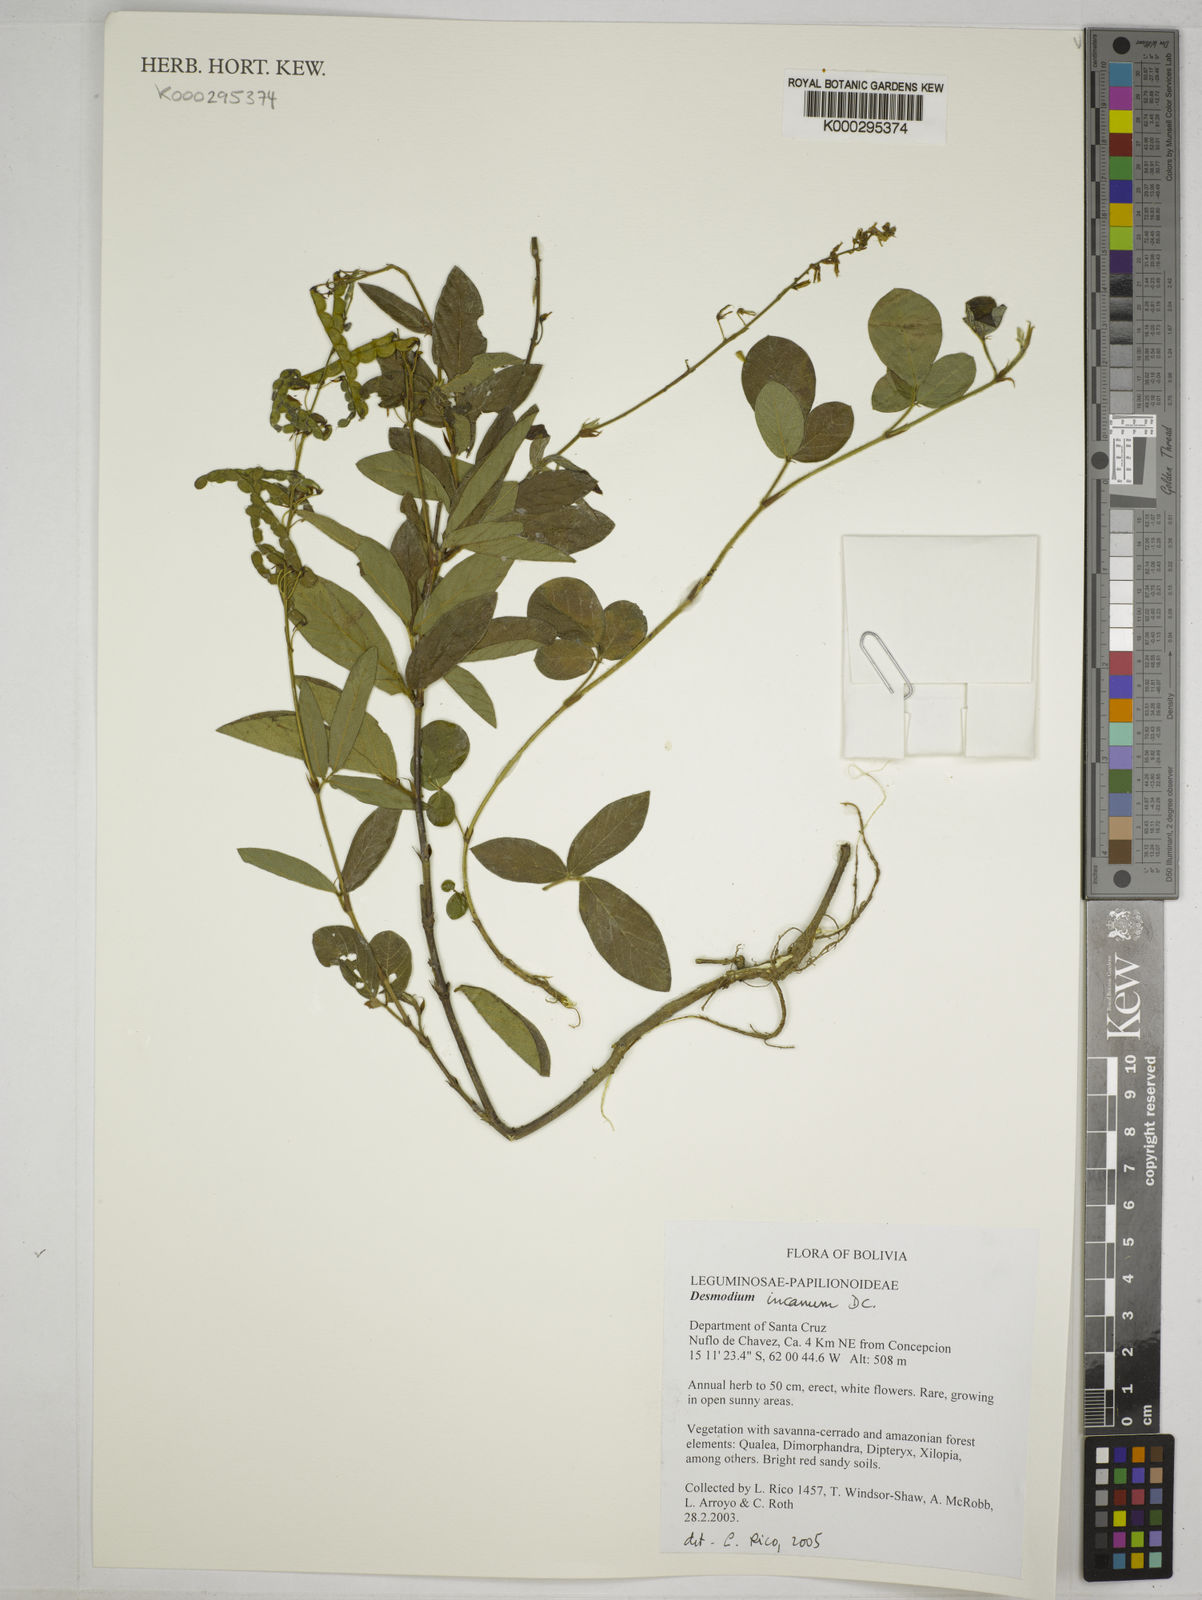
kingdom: Plantae
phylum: Tracheophyta
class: Magnoliopsida
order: Fabales
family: Fabaceae
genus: Desmodium
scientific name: Desmodium incanum
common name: Tickclover
